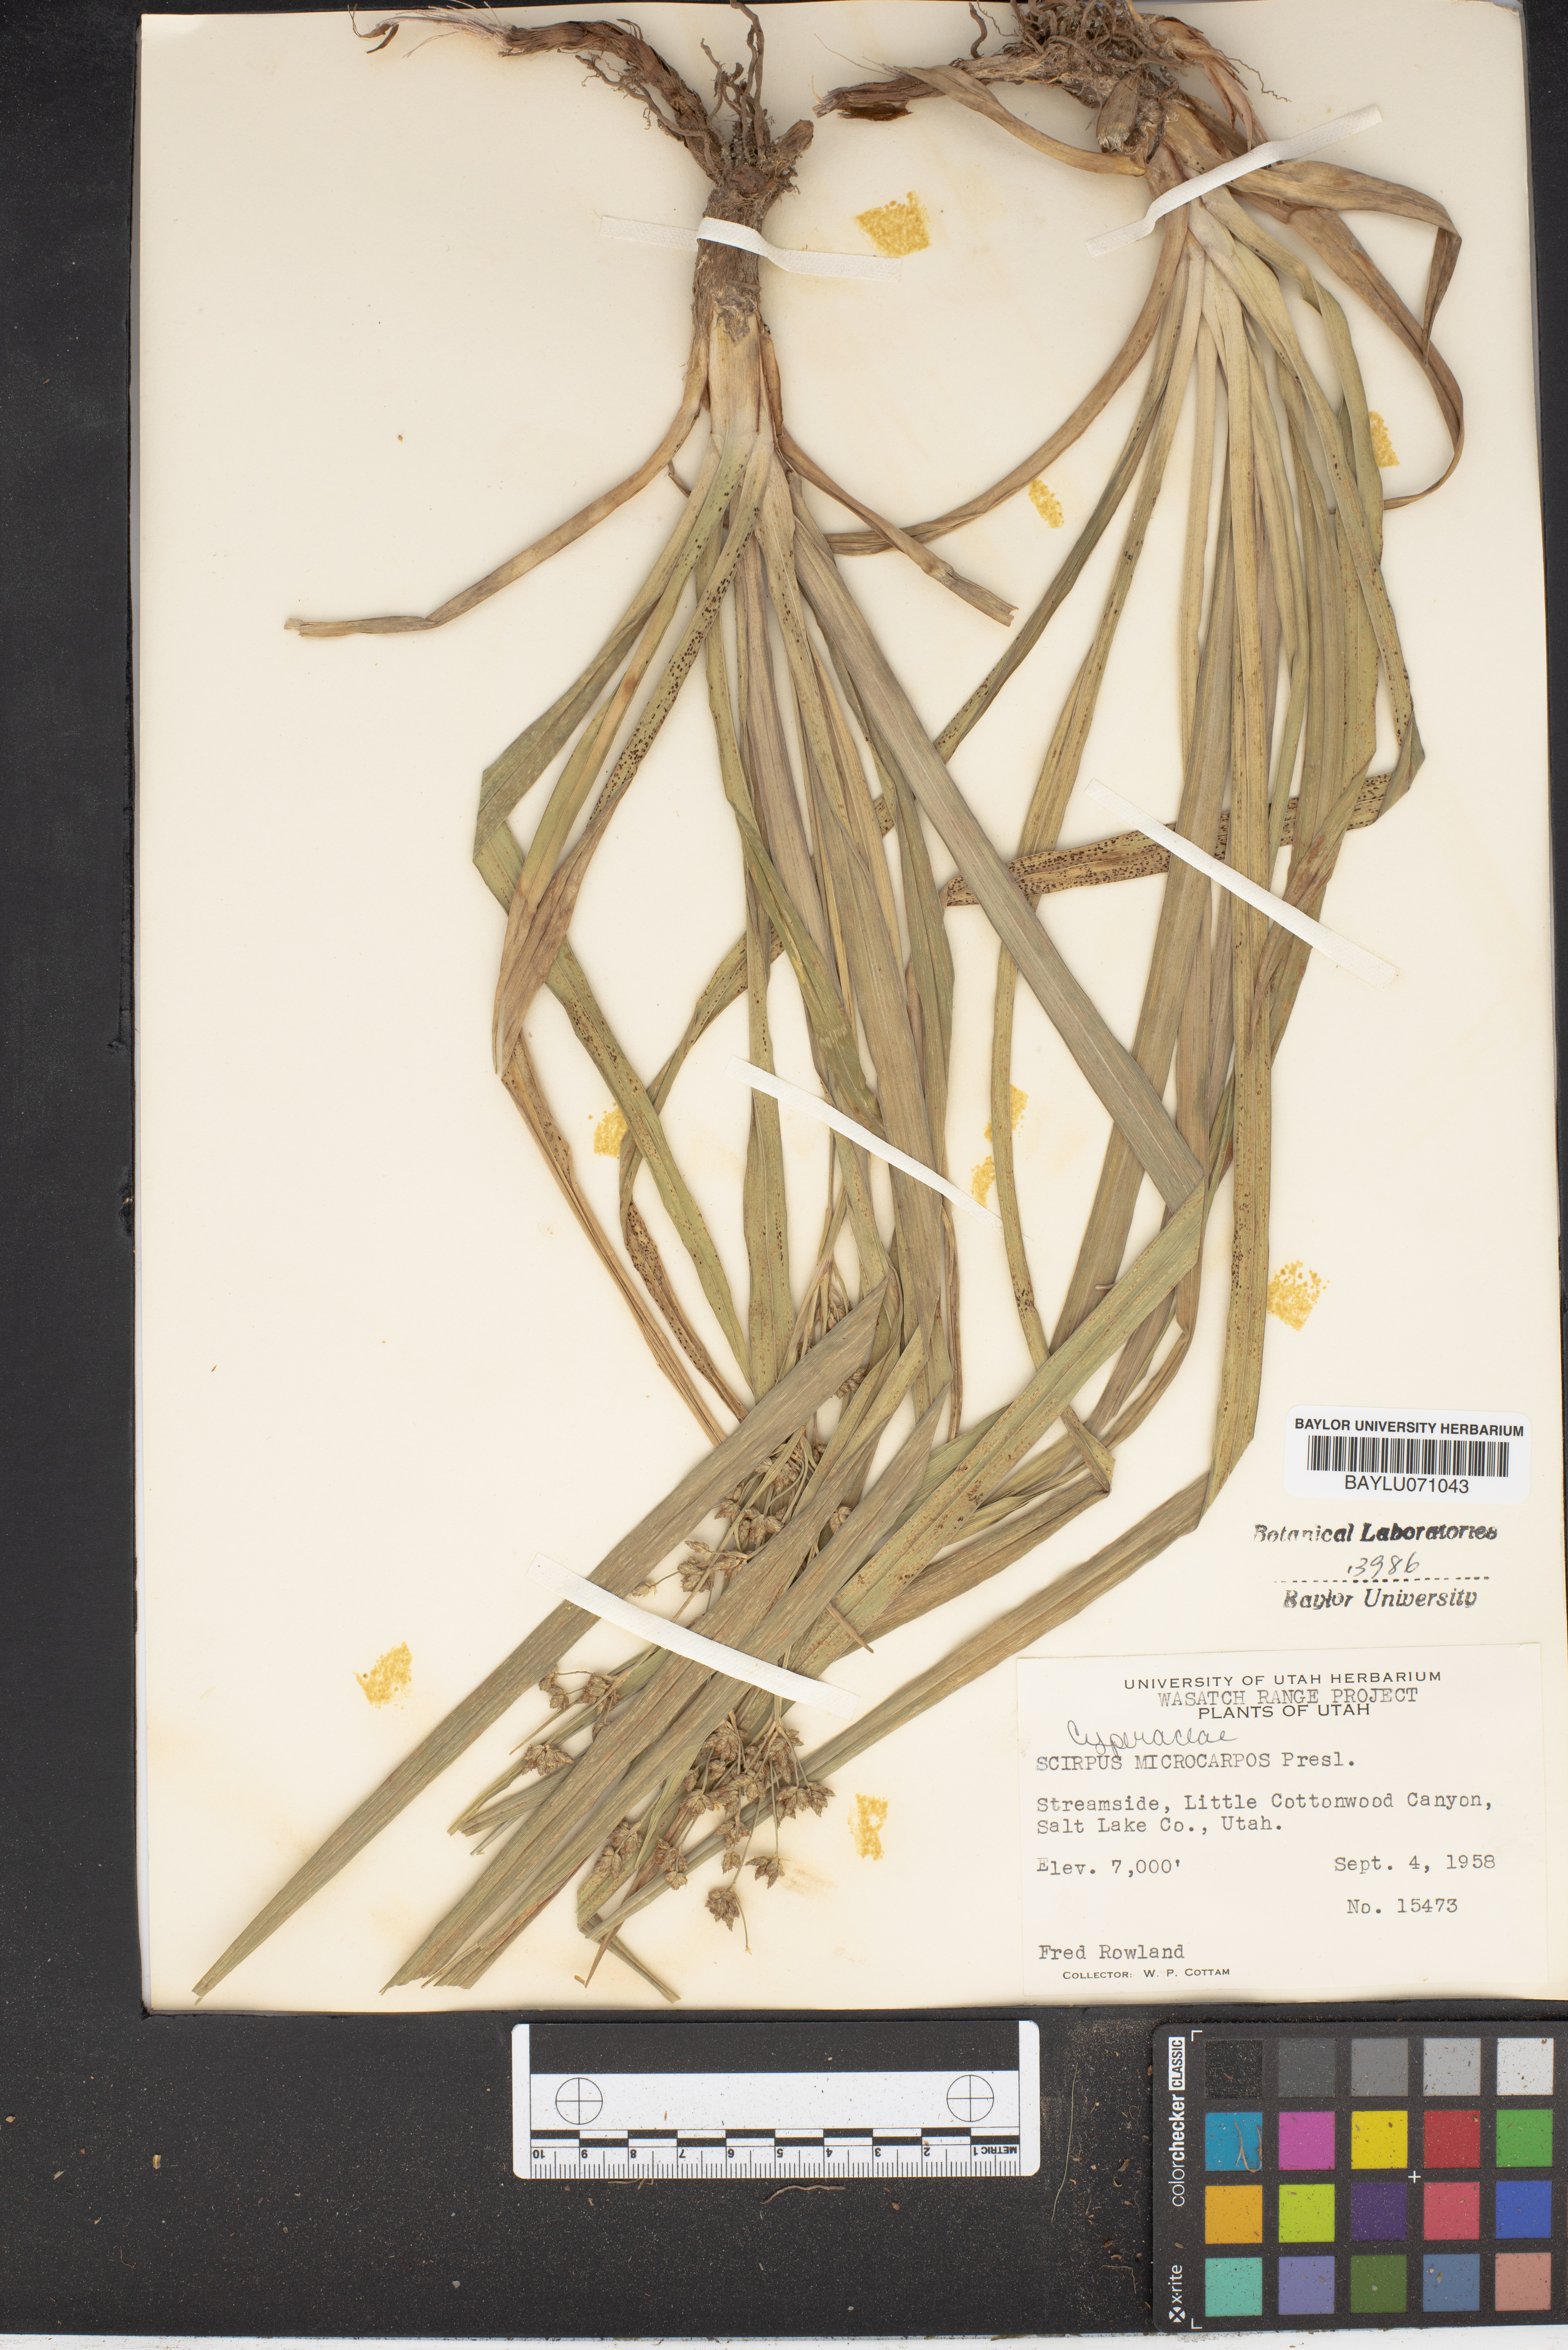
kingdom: Plantae
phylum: Tracheophyta
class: Liliopsida
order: Poales
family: Cyperaceae
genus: Scirpus
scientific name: Scirpus microcarpus
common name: Panicled bulrush
